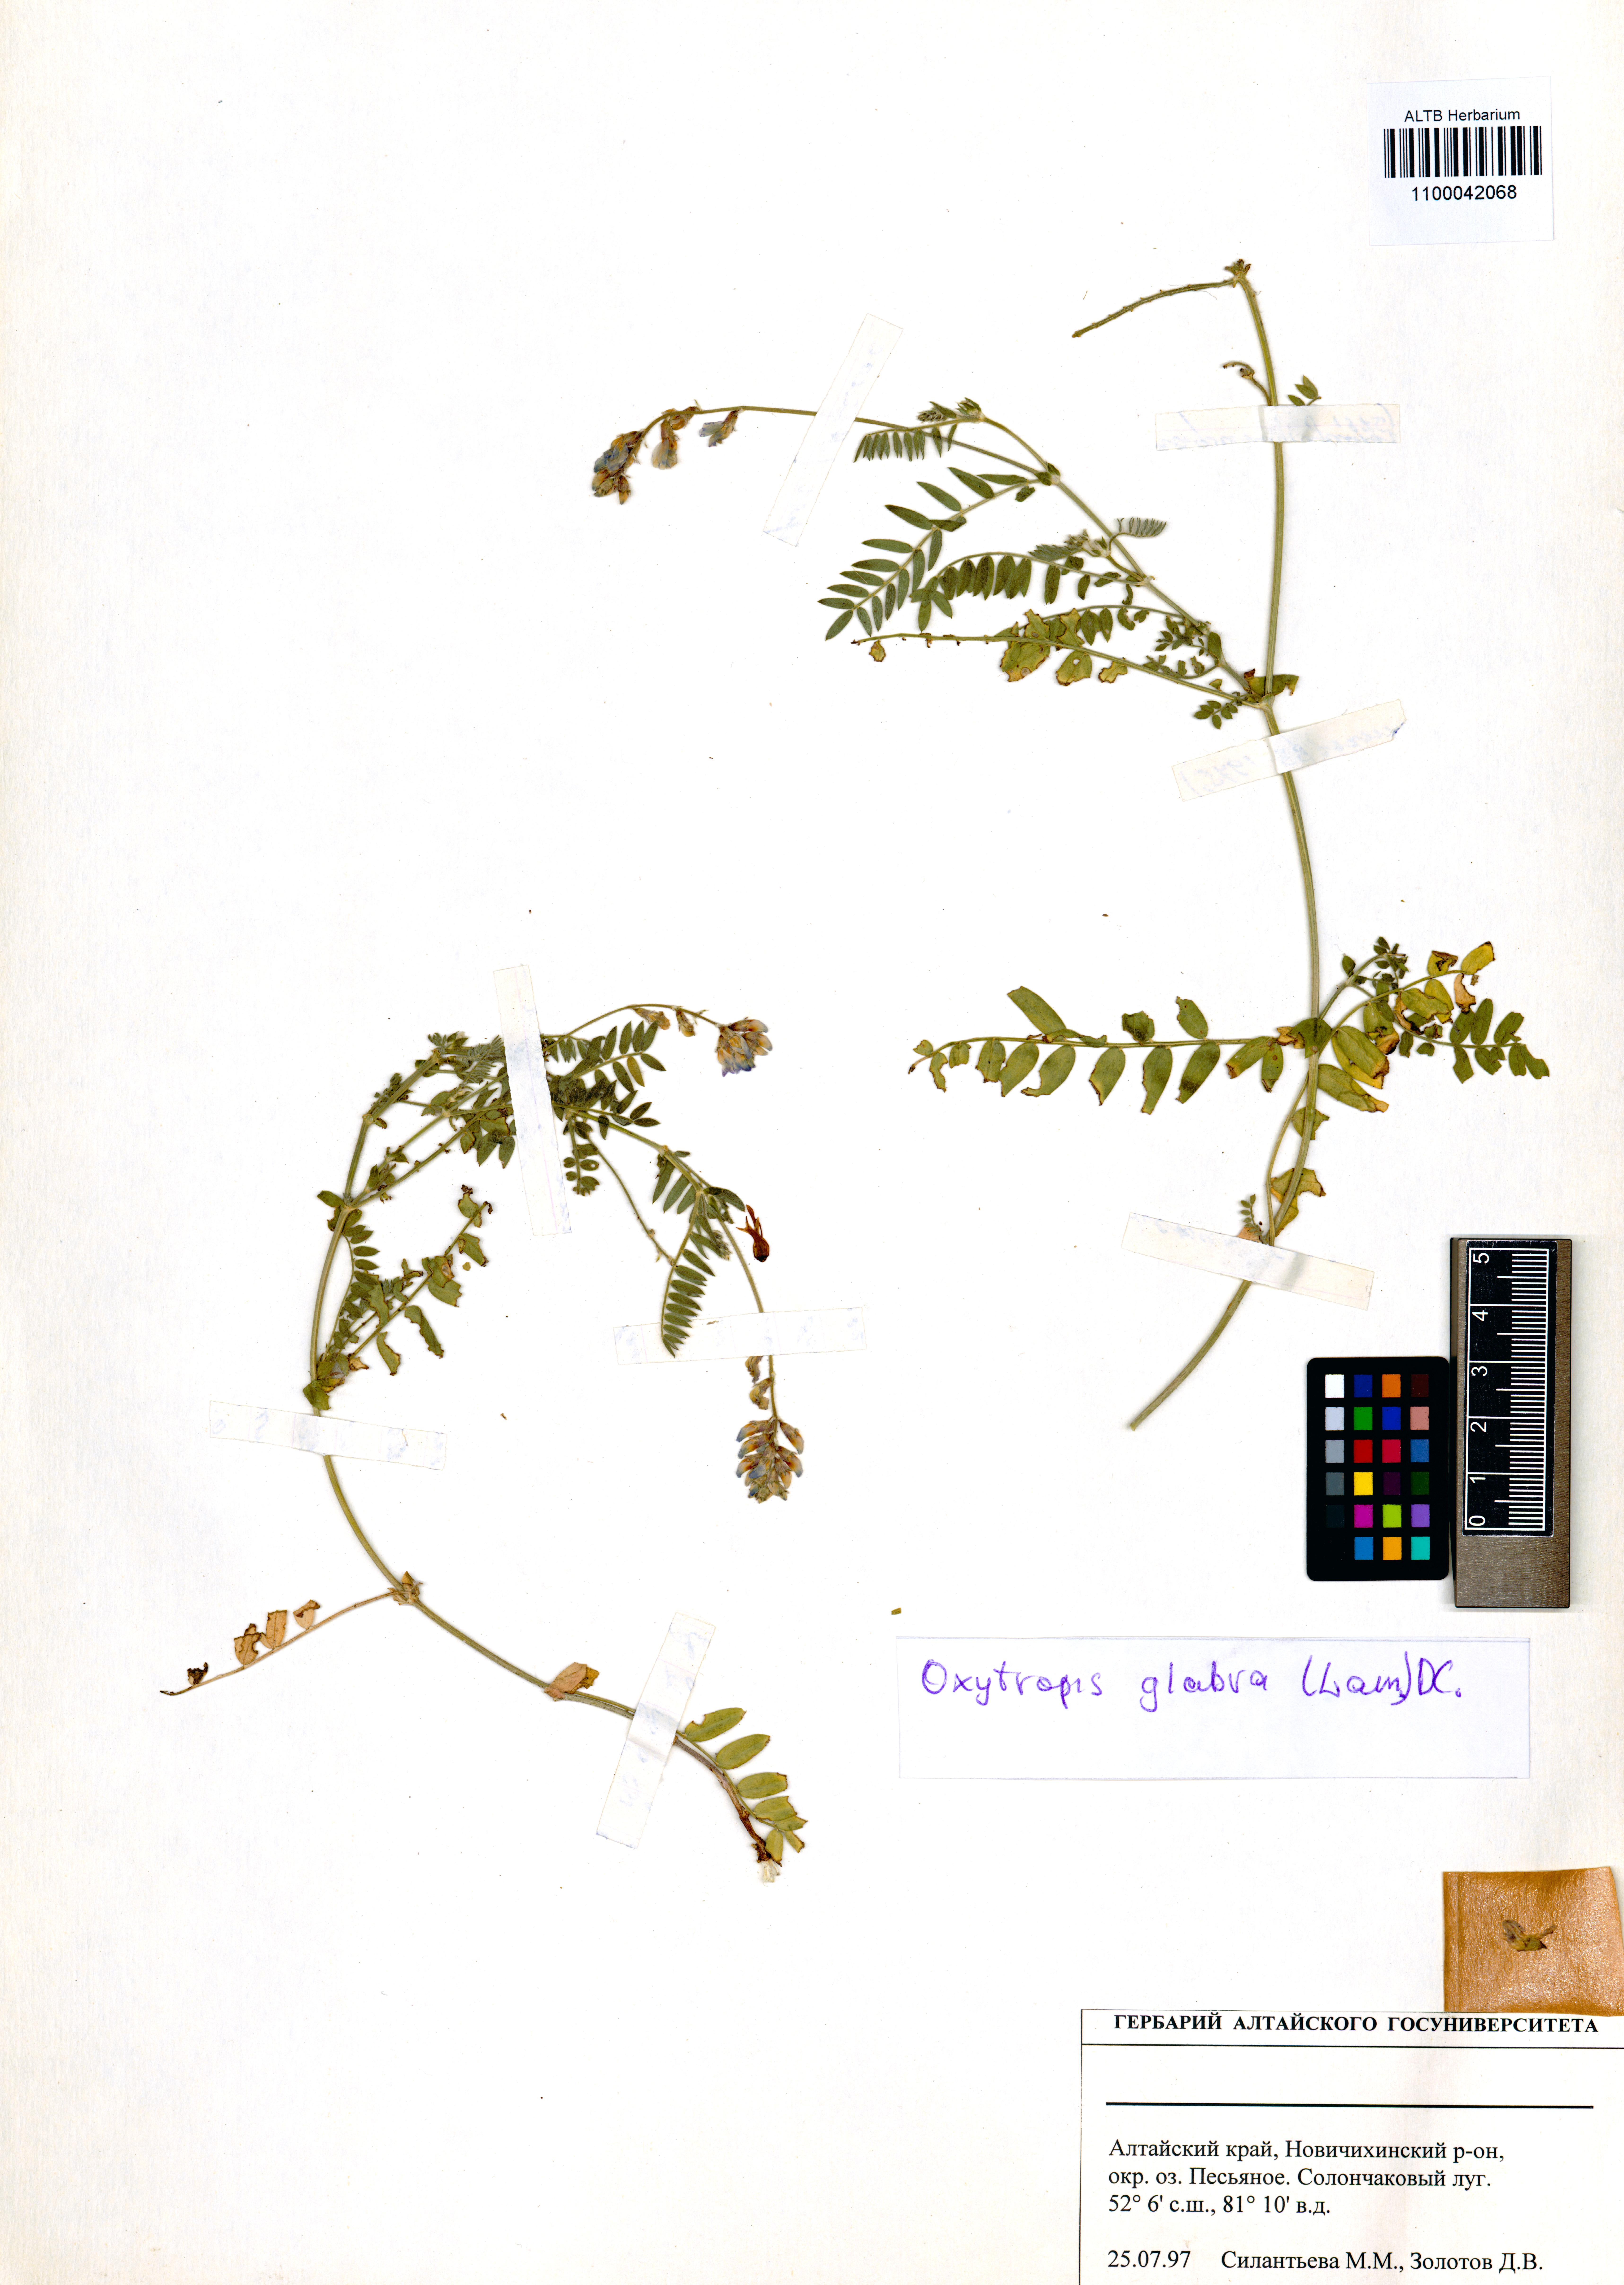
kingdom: Plantae
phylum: Tracheophyta
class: Magnoliopsida
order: Fabales
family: Fabaceae
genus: Oxytropis
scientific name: Oxytropis glabra
